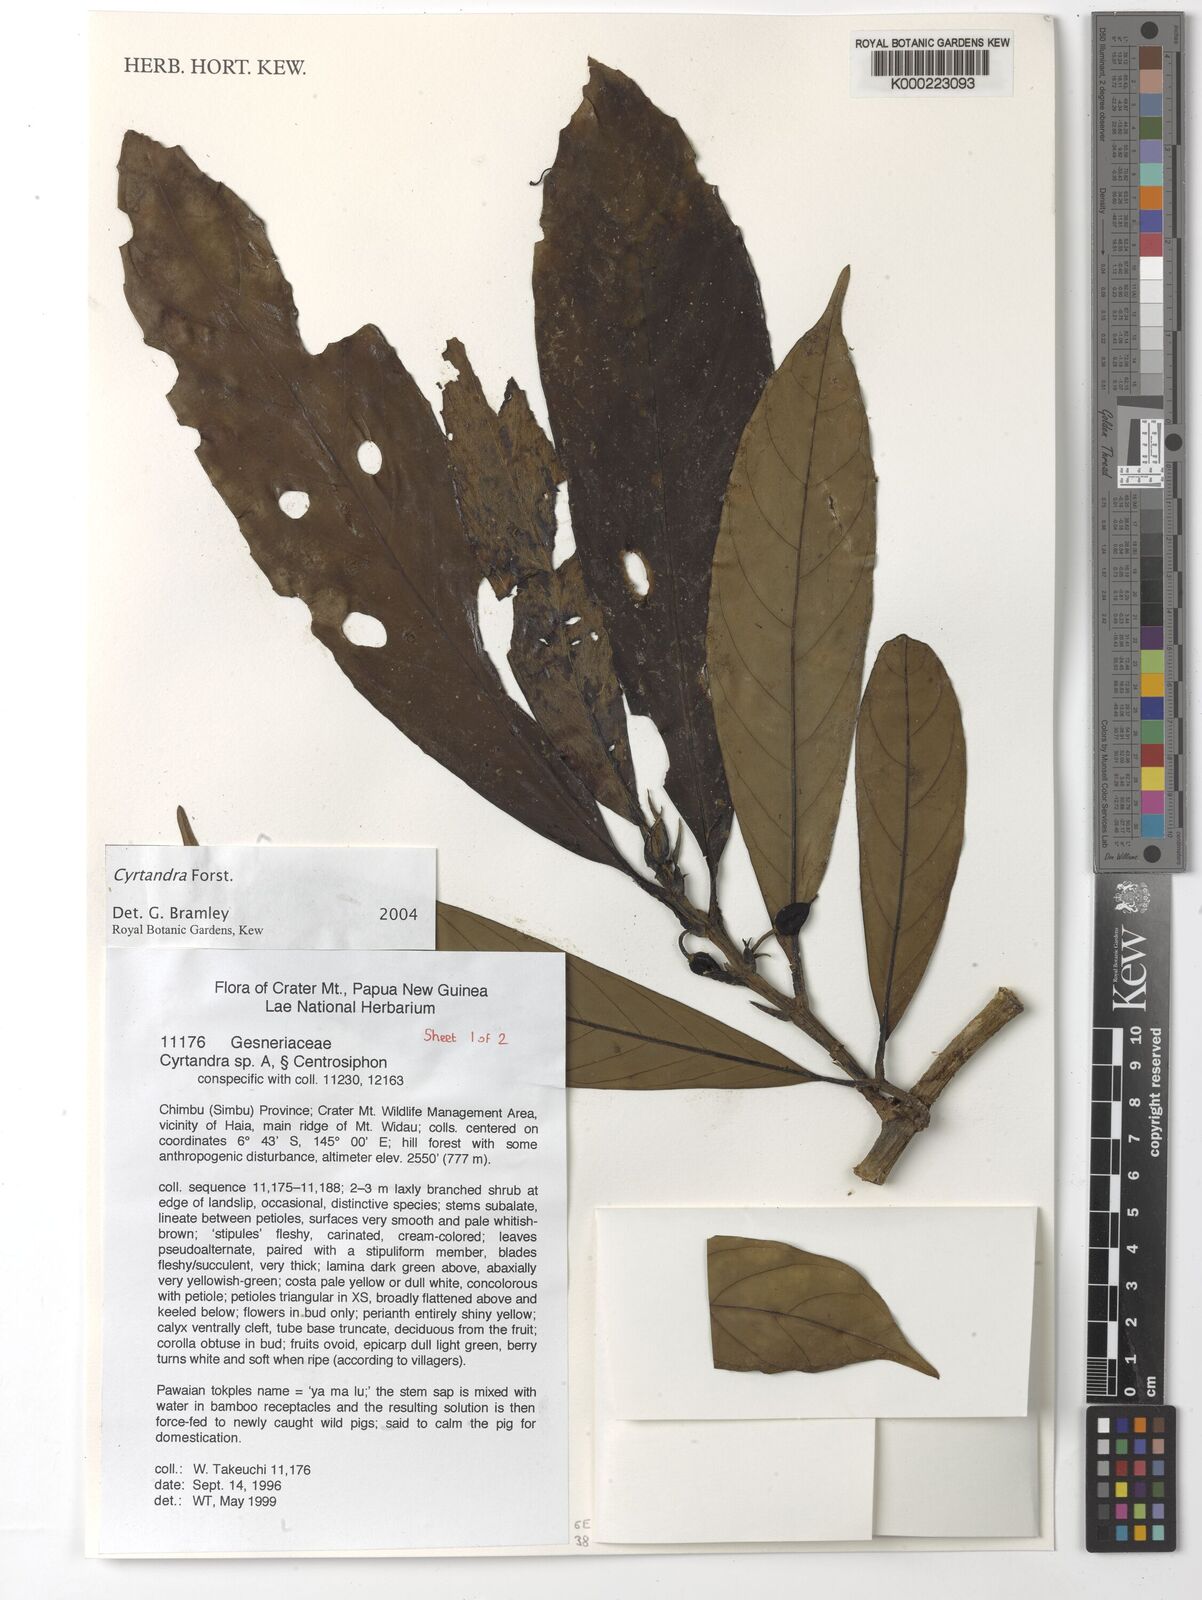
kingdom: Plantae
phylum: Tracheophyta
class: Magnoliopsida
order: Lamiales
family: Gesneriaceae
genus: Cyrtandra
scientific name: Cyrtandra
